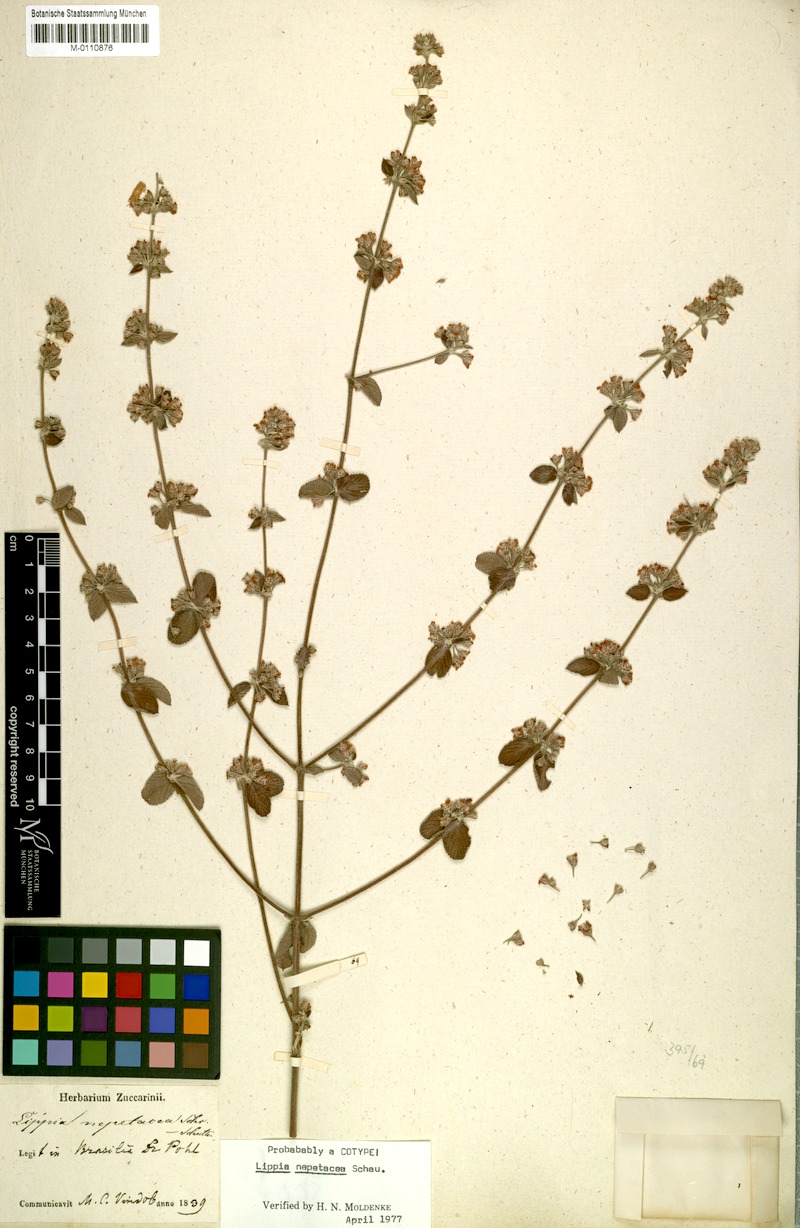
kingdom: Plantae
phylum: Tracheophyta
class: Magnoliopsida
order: Lamiales
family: Verbenaceae
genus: Lippia
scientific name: Lippia martiana
